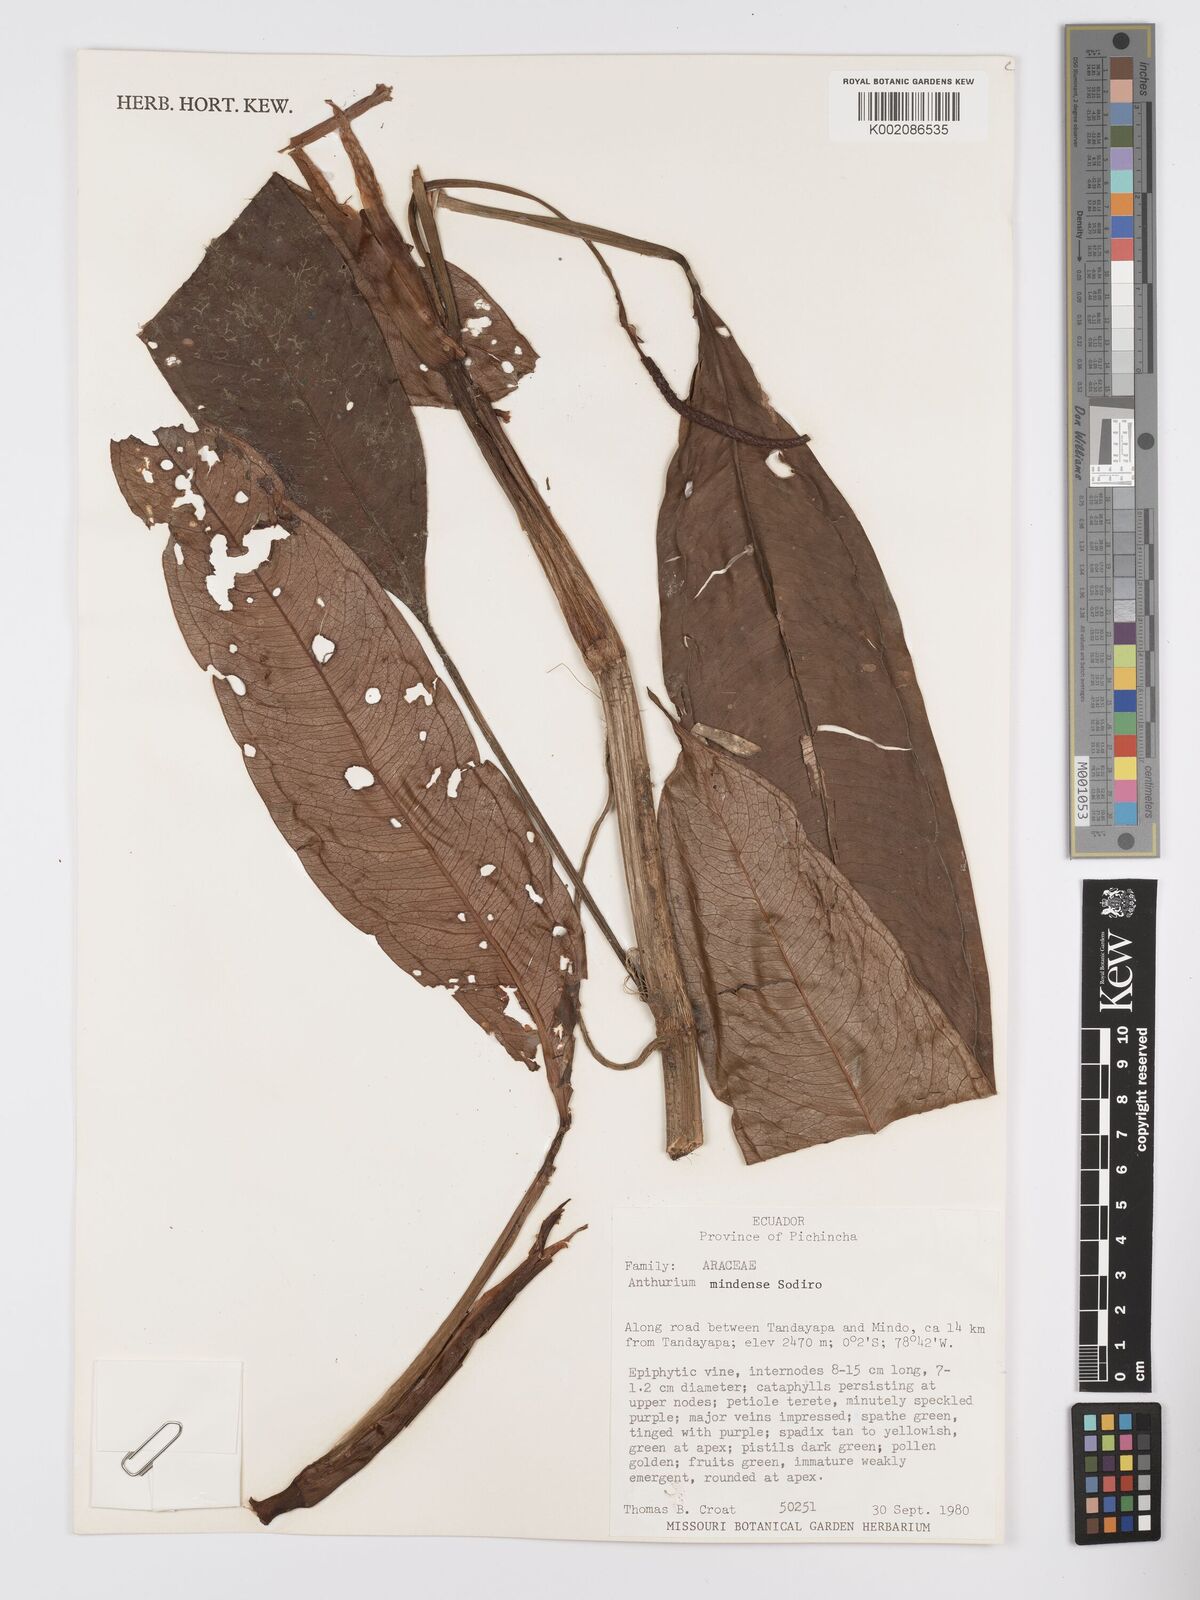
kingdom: Plantae
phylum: Tracheophyta
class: Liliopsida
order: Alismatales
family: Araceae
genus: Anthurium
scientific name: Anthurium mindense
